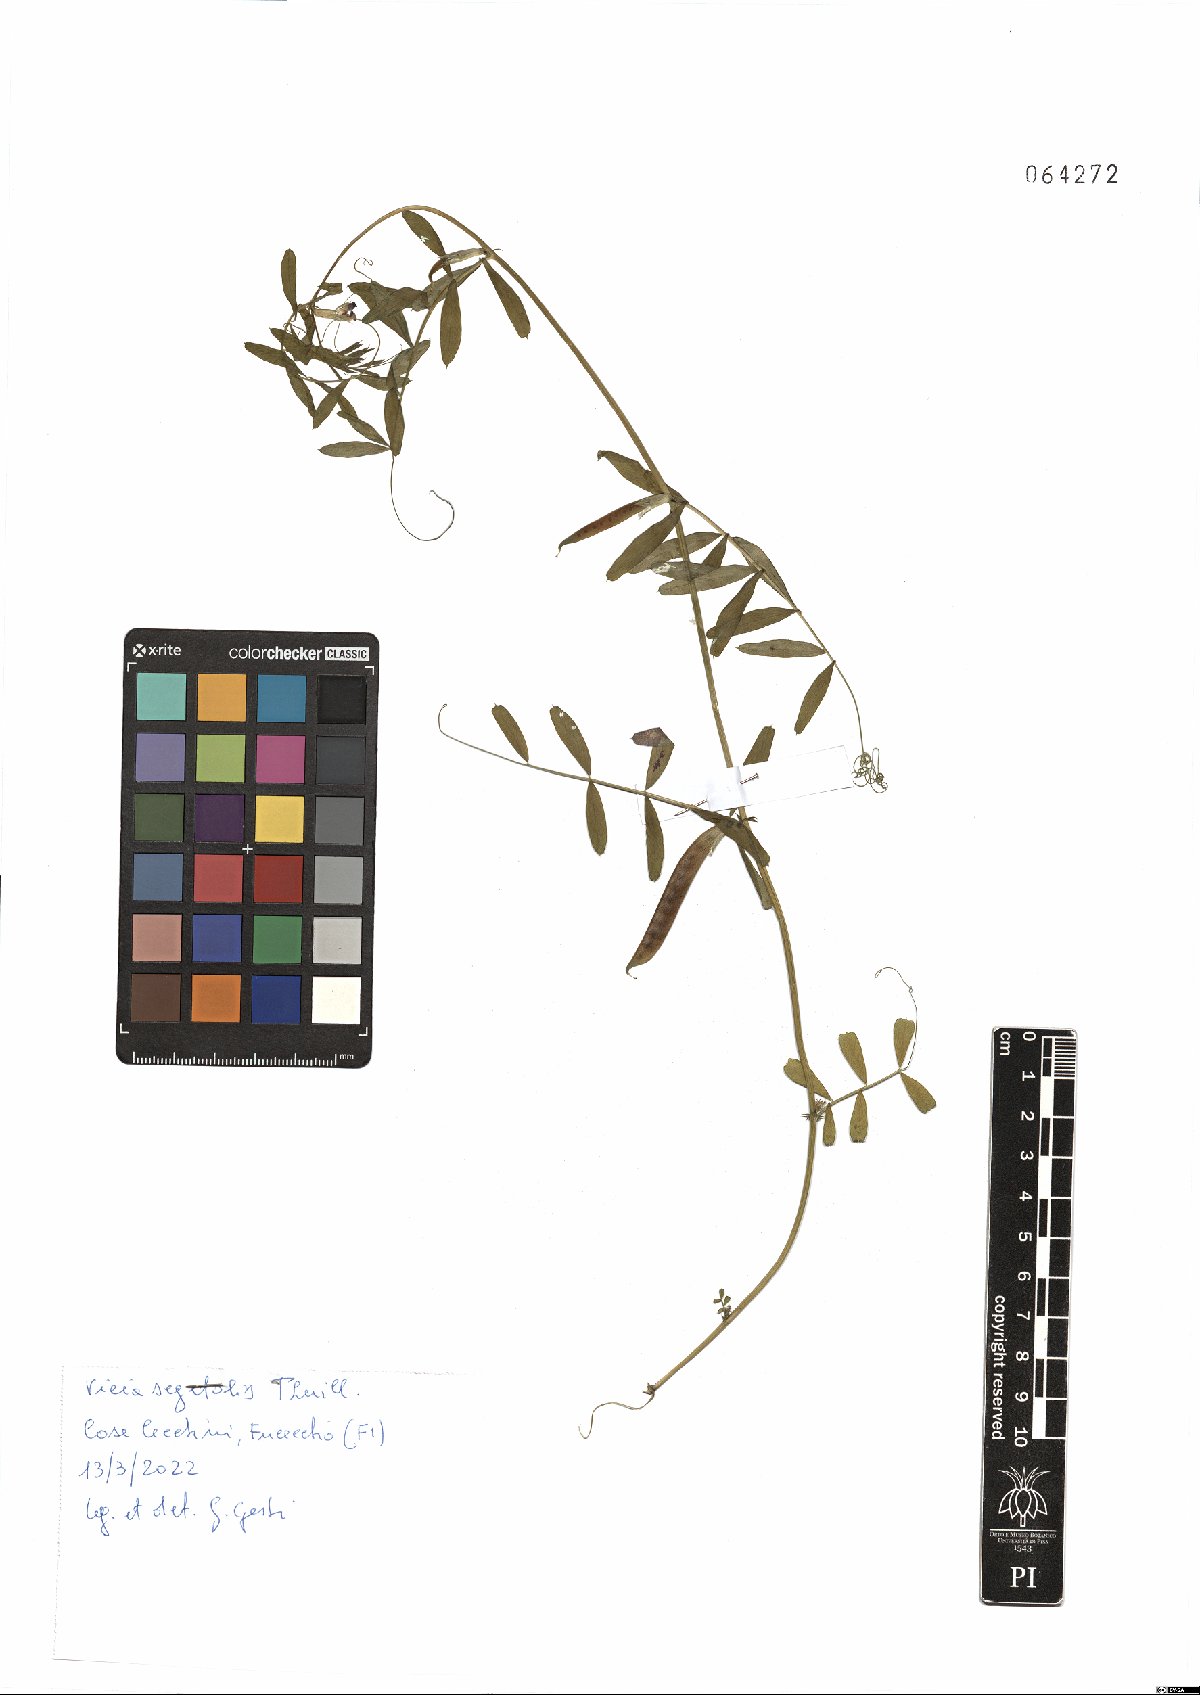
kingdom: Plantae
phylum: Tracheophyta
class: Magnoliopsida
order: Fabales
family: Fabaceae
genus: Vicia
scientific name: Vicia sativa
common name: Garden vetch
